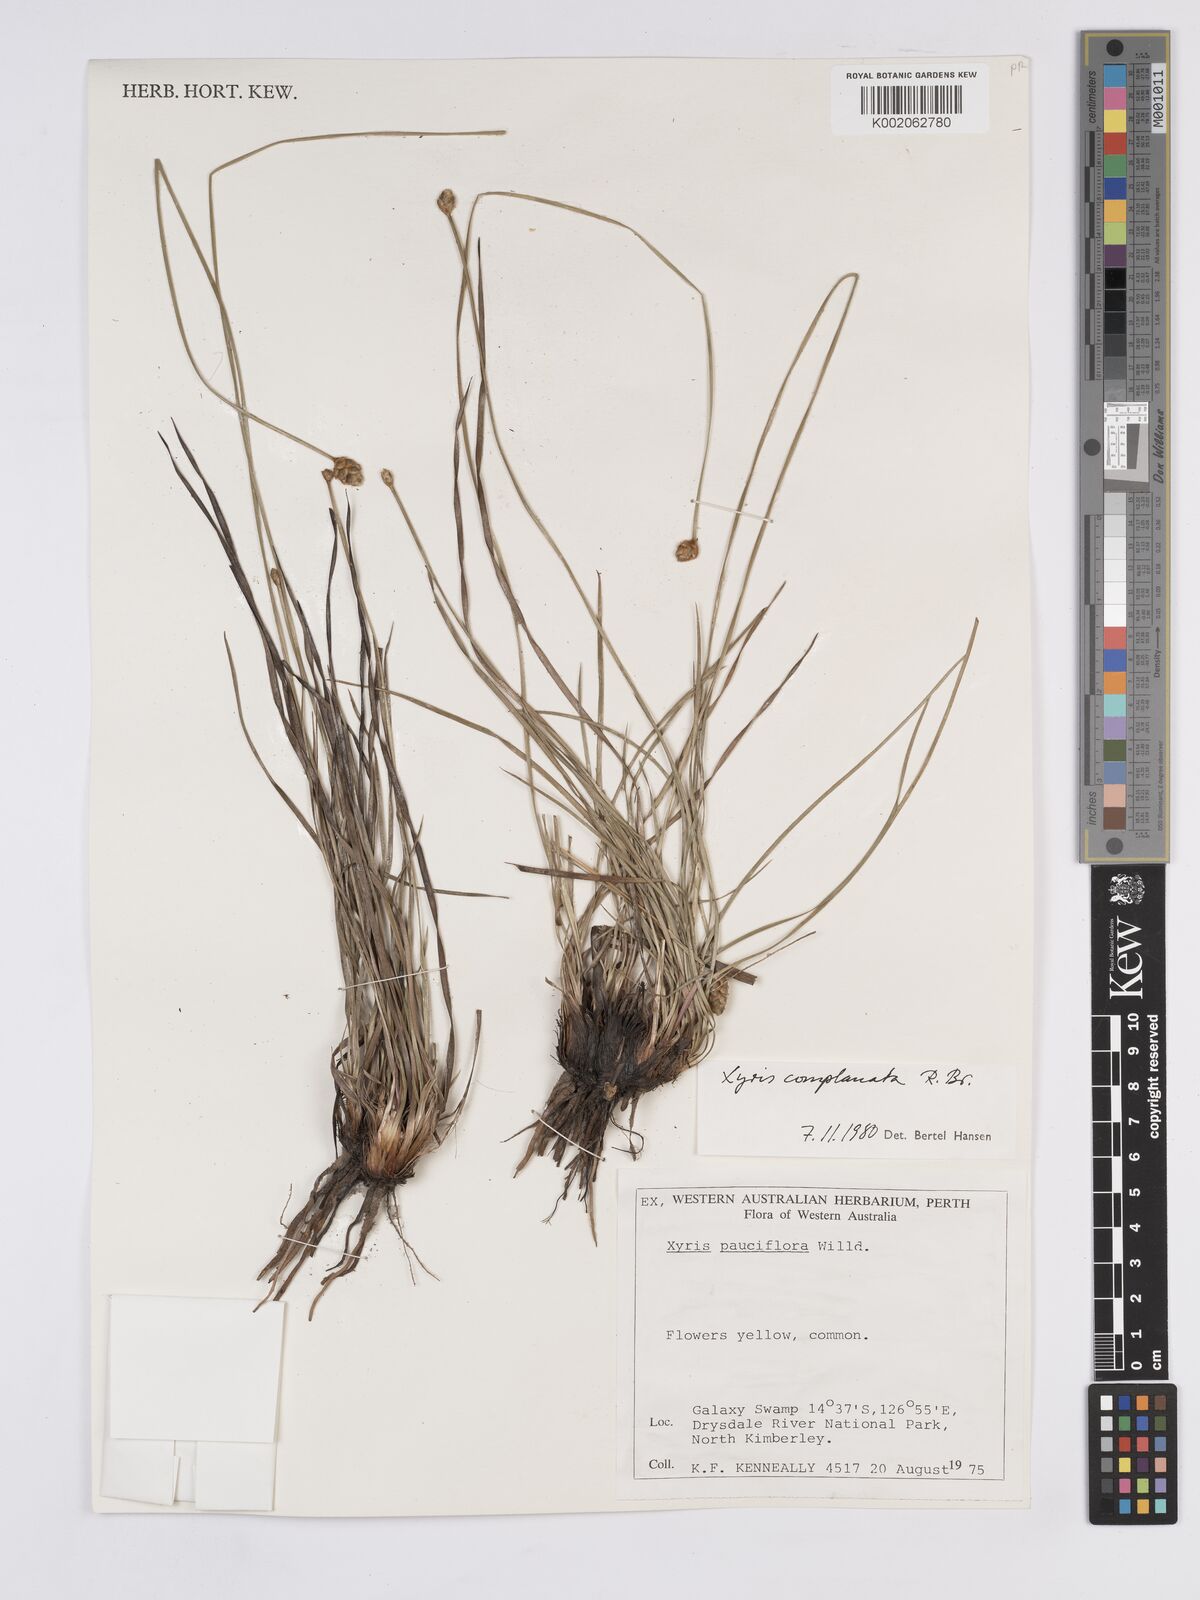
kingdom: Plantae
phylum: Tracheophyta
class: Liliopsida
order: Poales
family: Xyridaceae
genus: Xyris
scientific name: Xyris complanata
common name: Hawai'i yelloweyed grass
